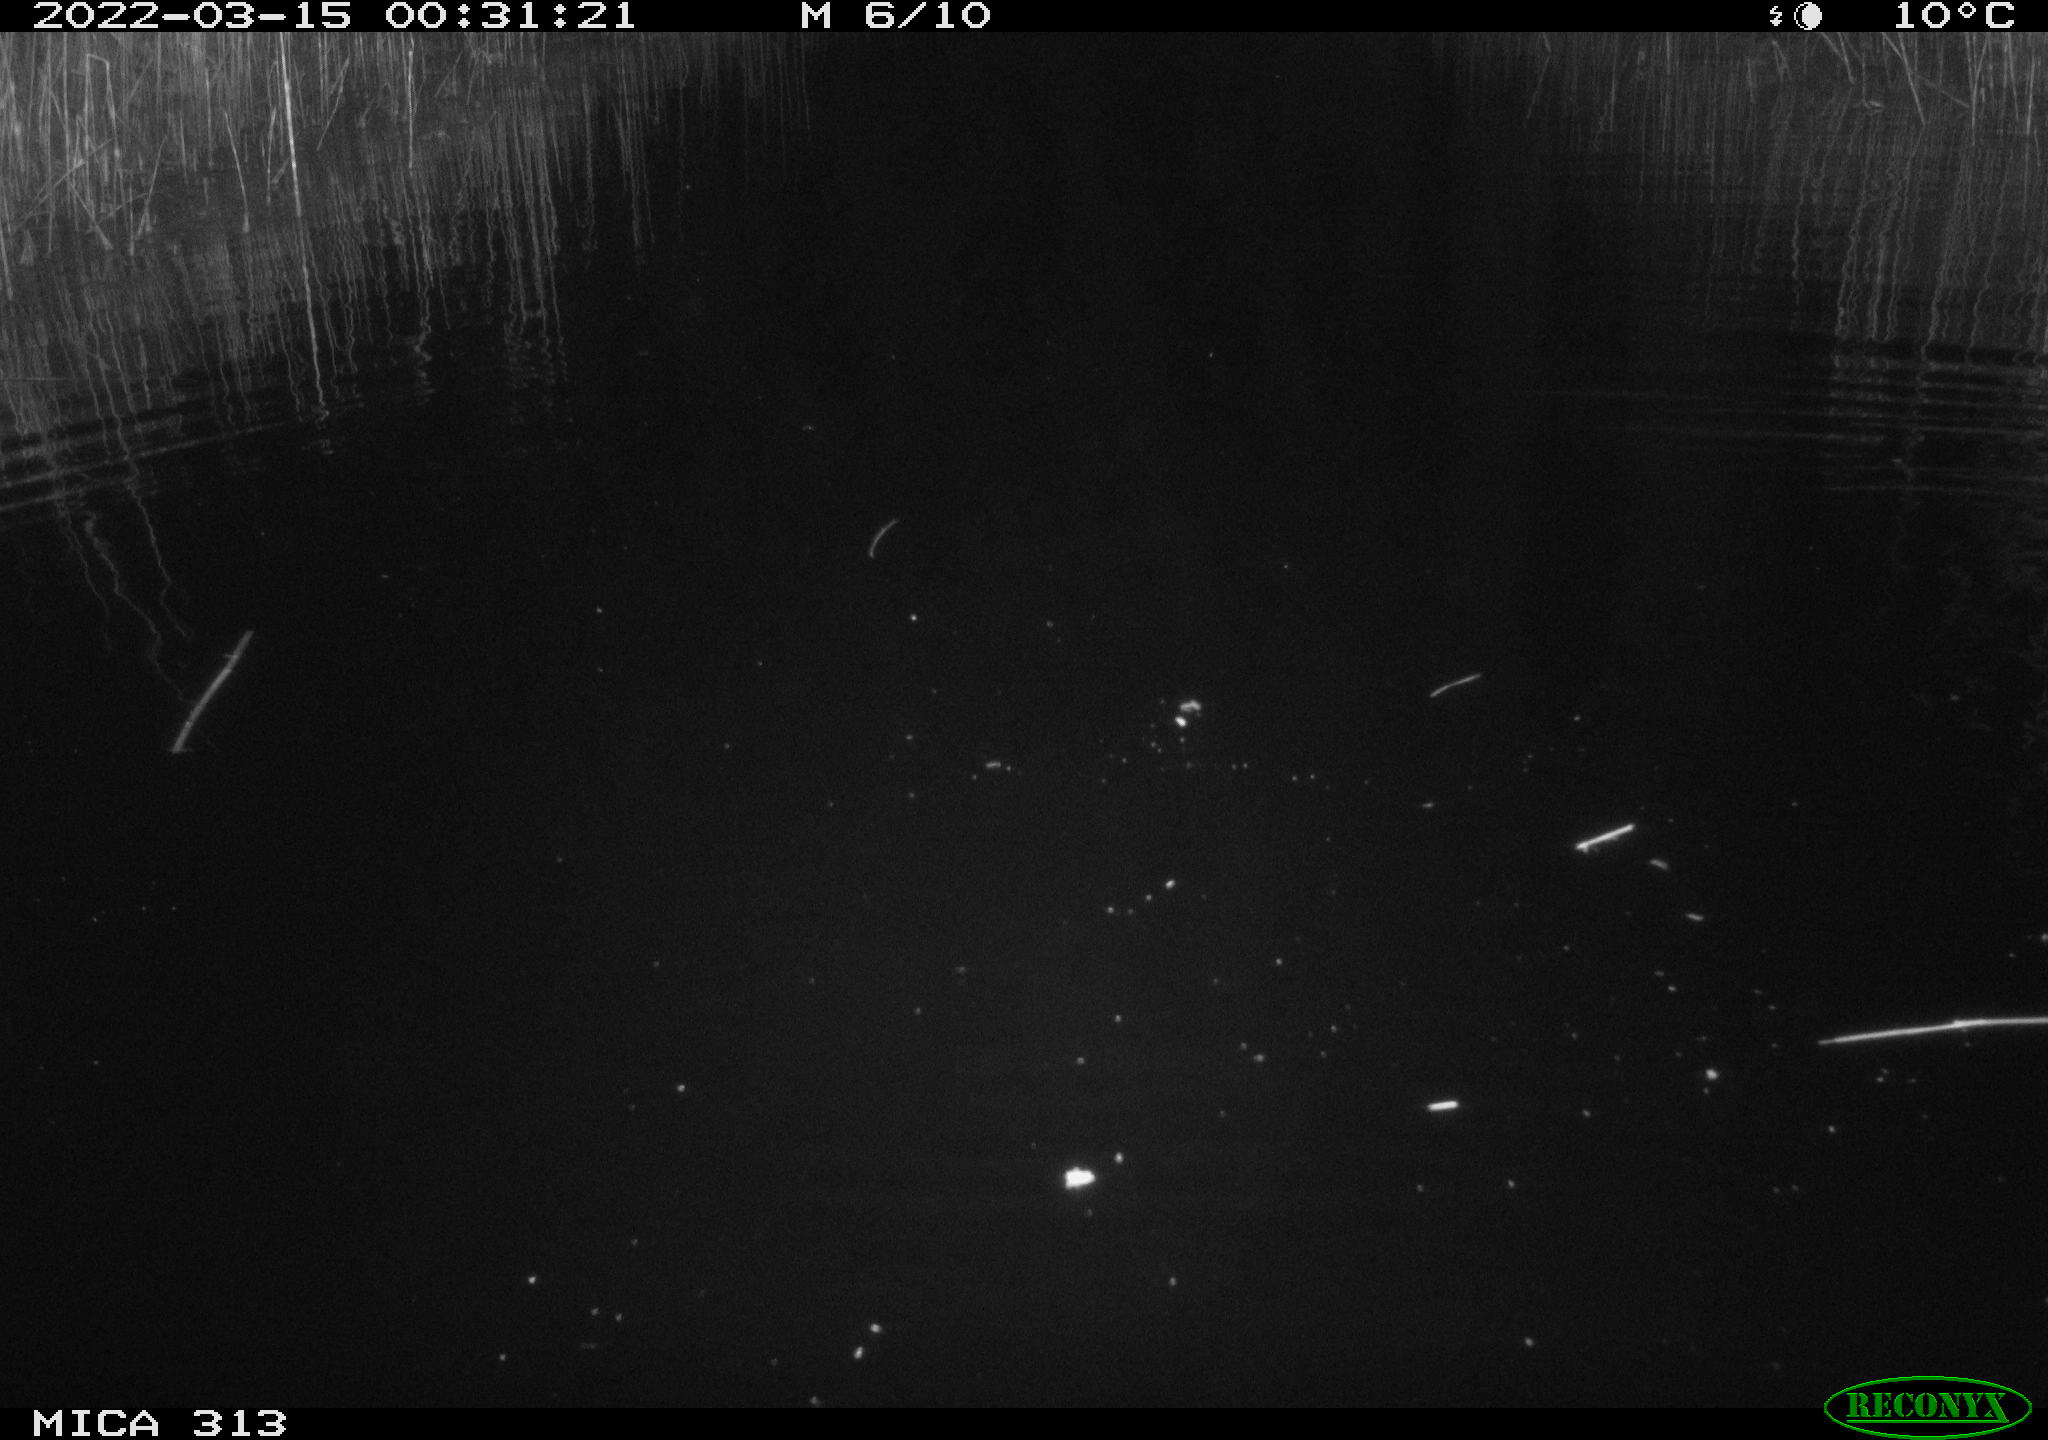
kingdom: Animalia
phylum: Chordata
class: Aves
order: Anseriformes
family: Anatidae
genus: Anas
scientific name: Anas platyrhynchos
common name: Mallard
